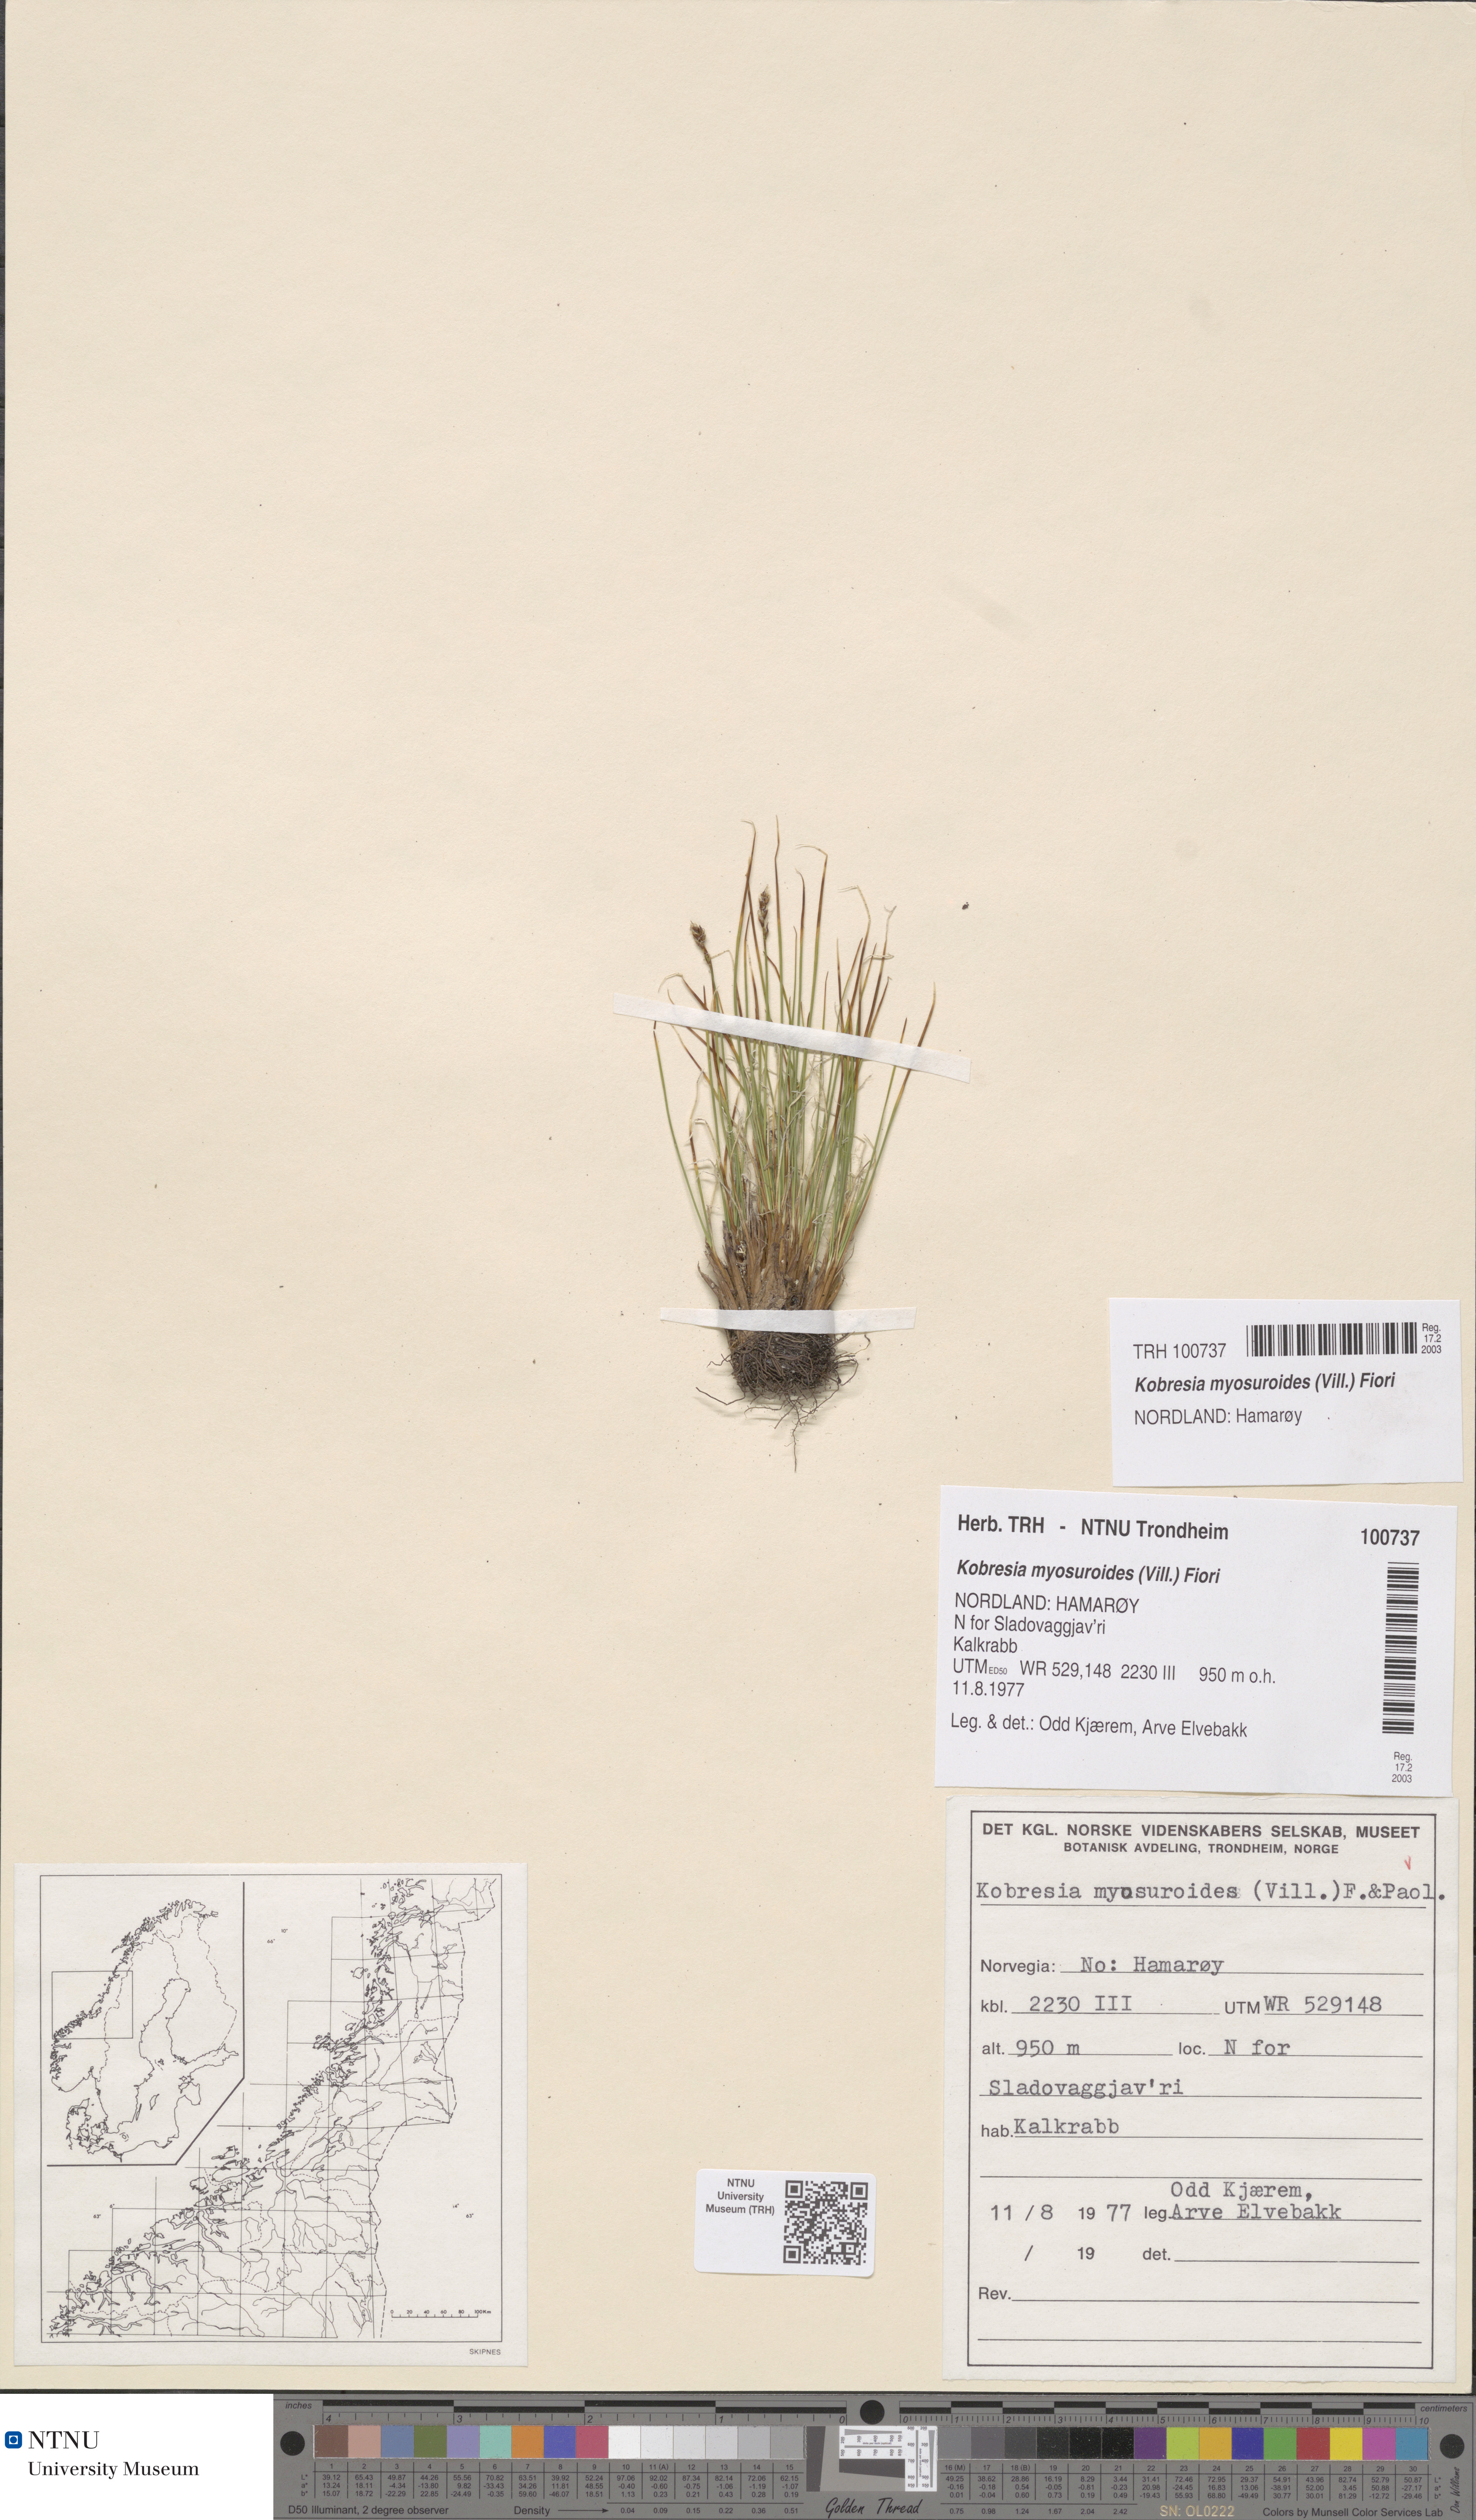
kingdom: Plantae
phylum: Tracheophyta
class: Liliopsida
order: Poales
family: Cyperaceae
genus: Carex
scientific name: Carex myosuroides
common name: Bellard's bog sedge
